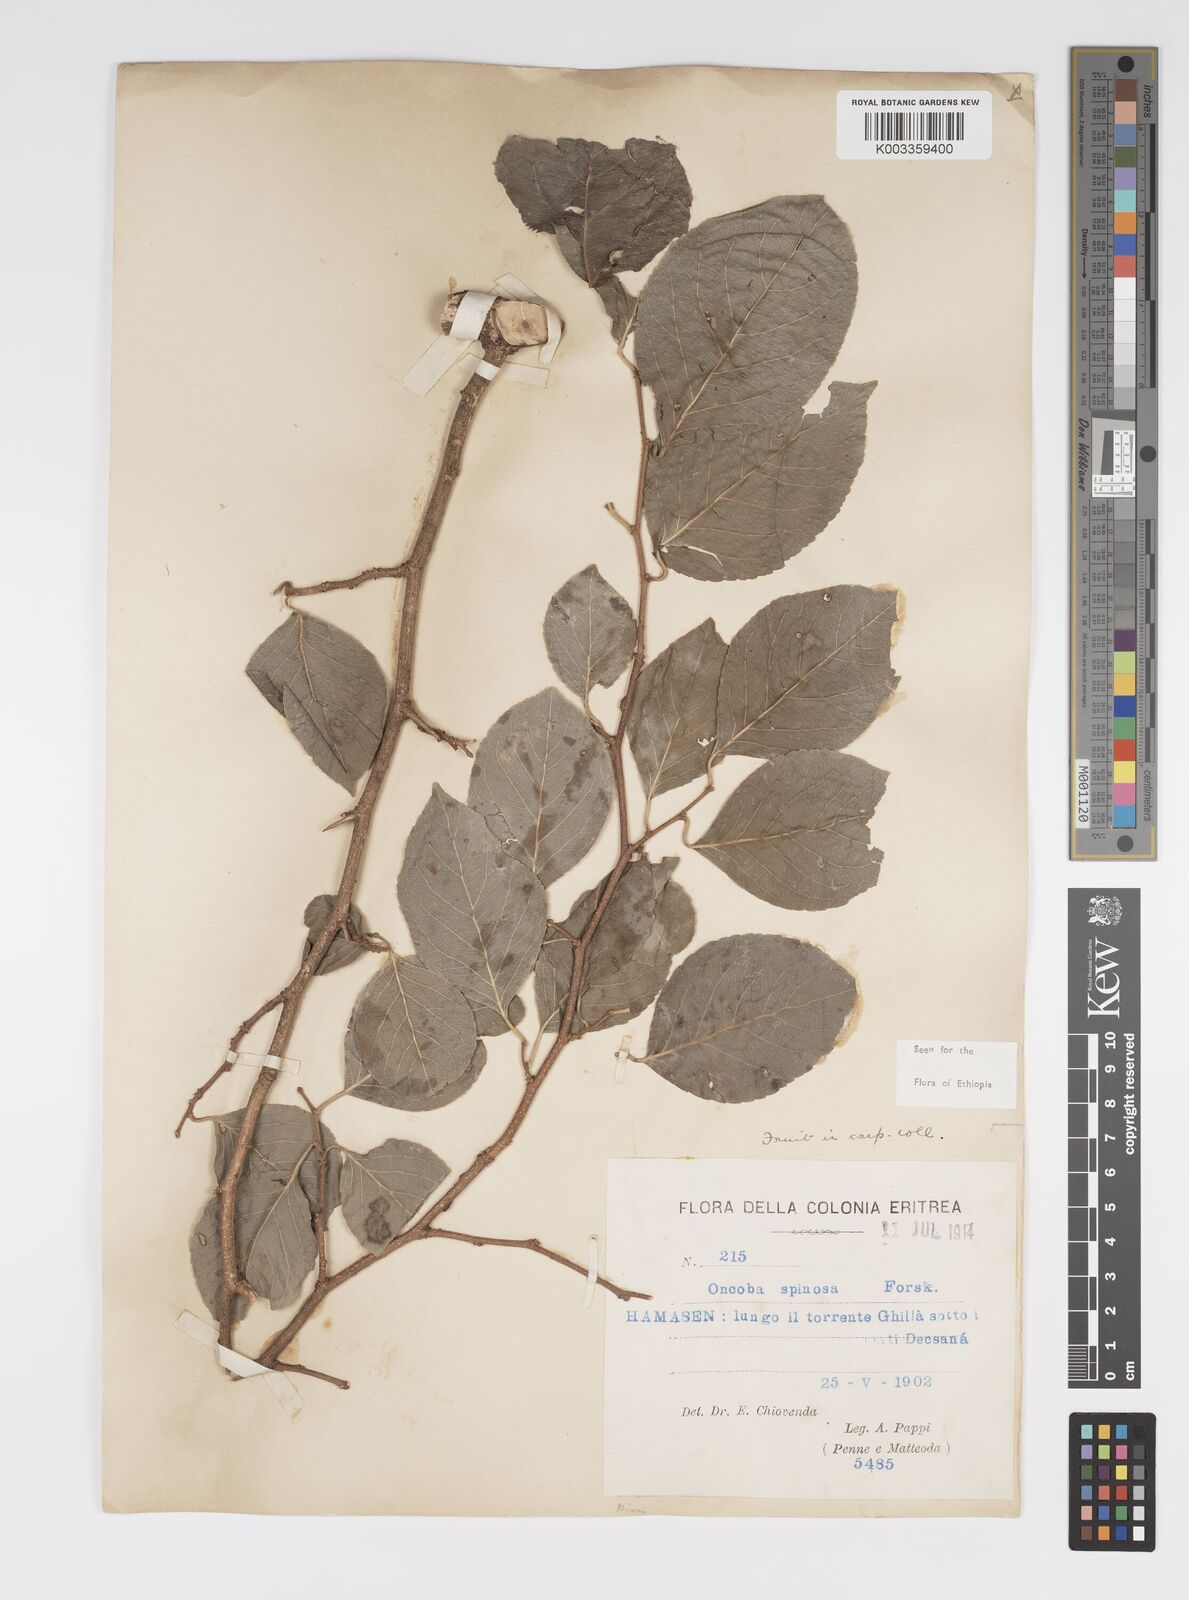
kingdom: Plantae
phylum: Tracheophyta
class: Magnoliopsida
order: Malpighiales
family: Salicaceae
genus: Oncoba
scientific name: Oncoba spinosa
